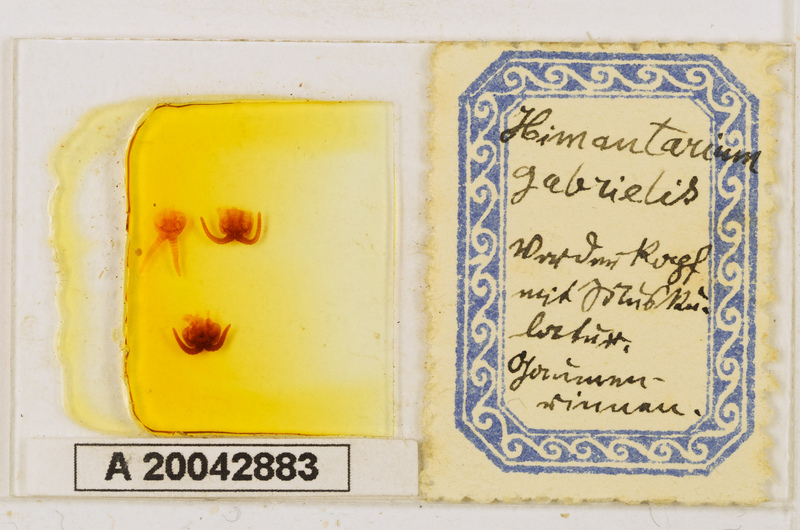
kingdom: Animalia
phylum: Arthropoda
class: Chilopoda
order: Geophilomorpha
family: Himantariidae
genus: Himantarium
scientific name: Himantarium gabrielis
